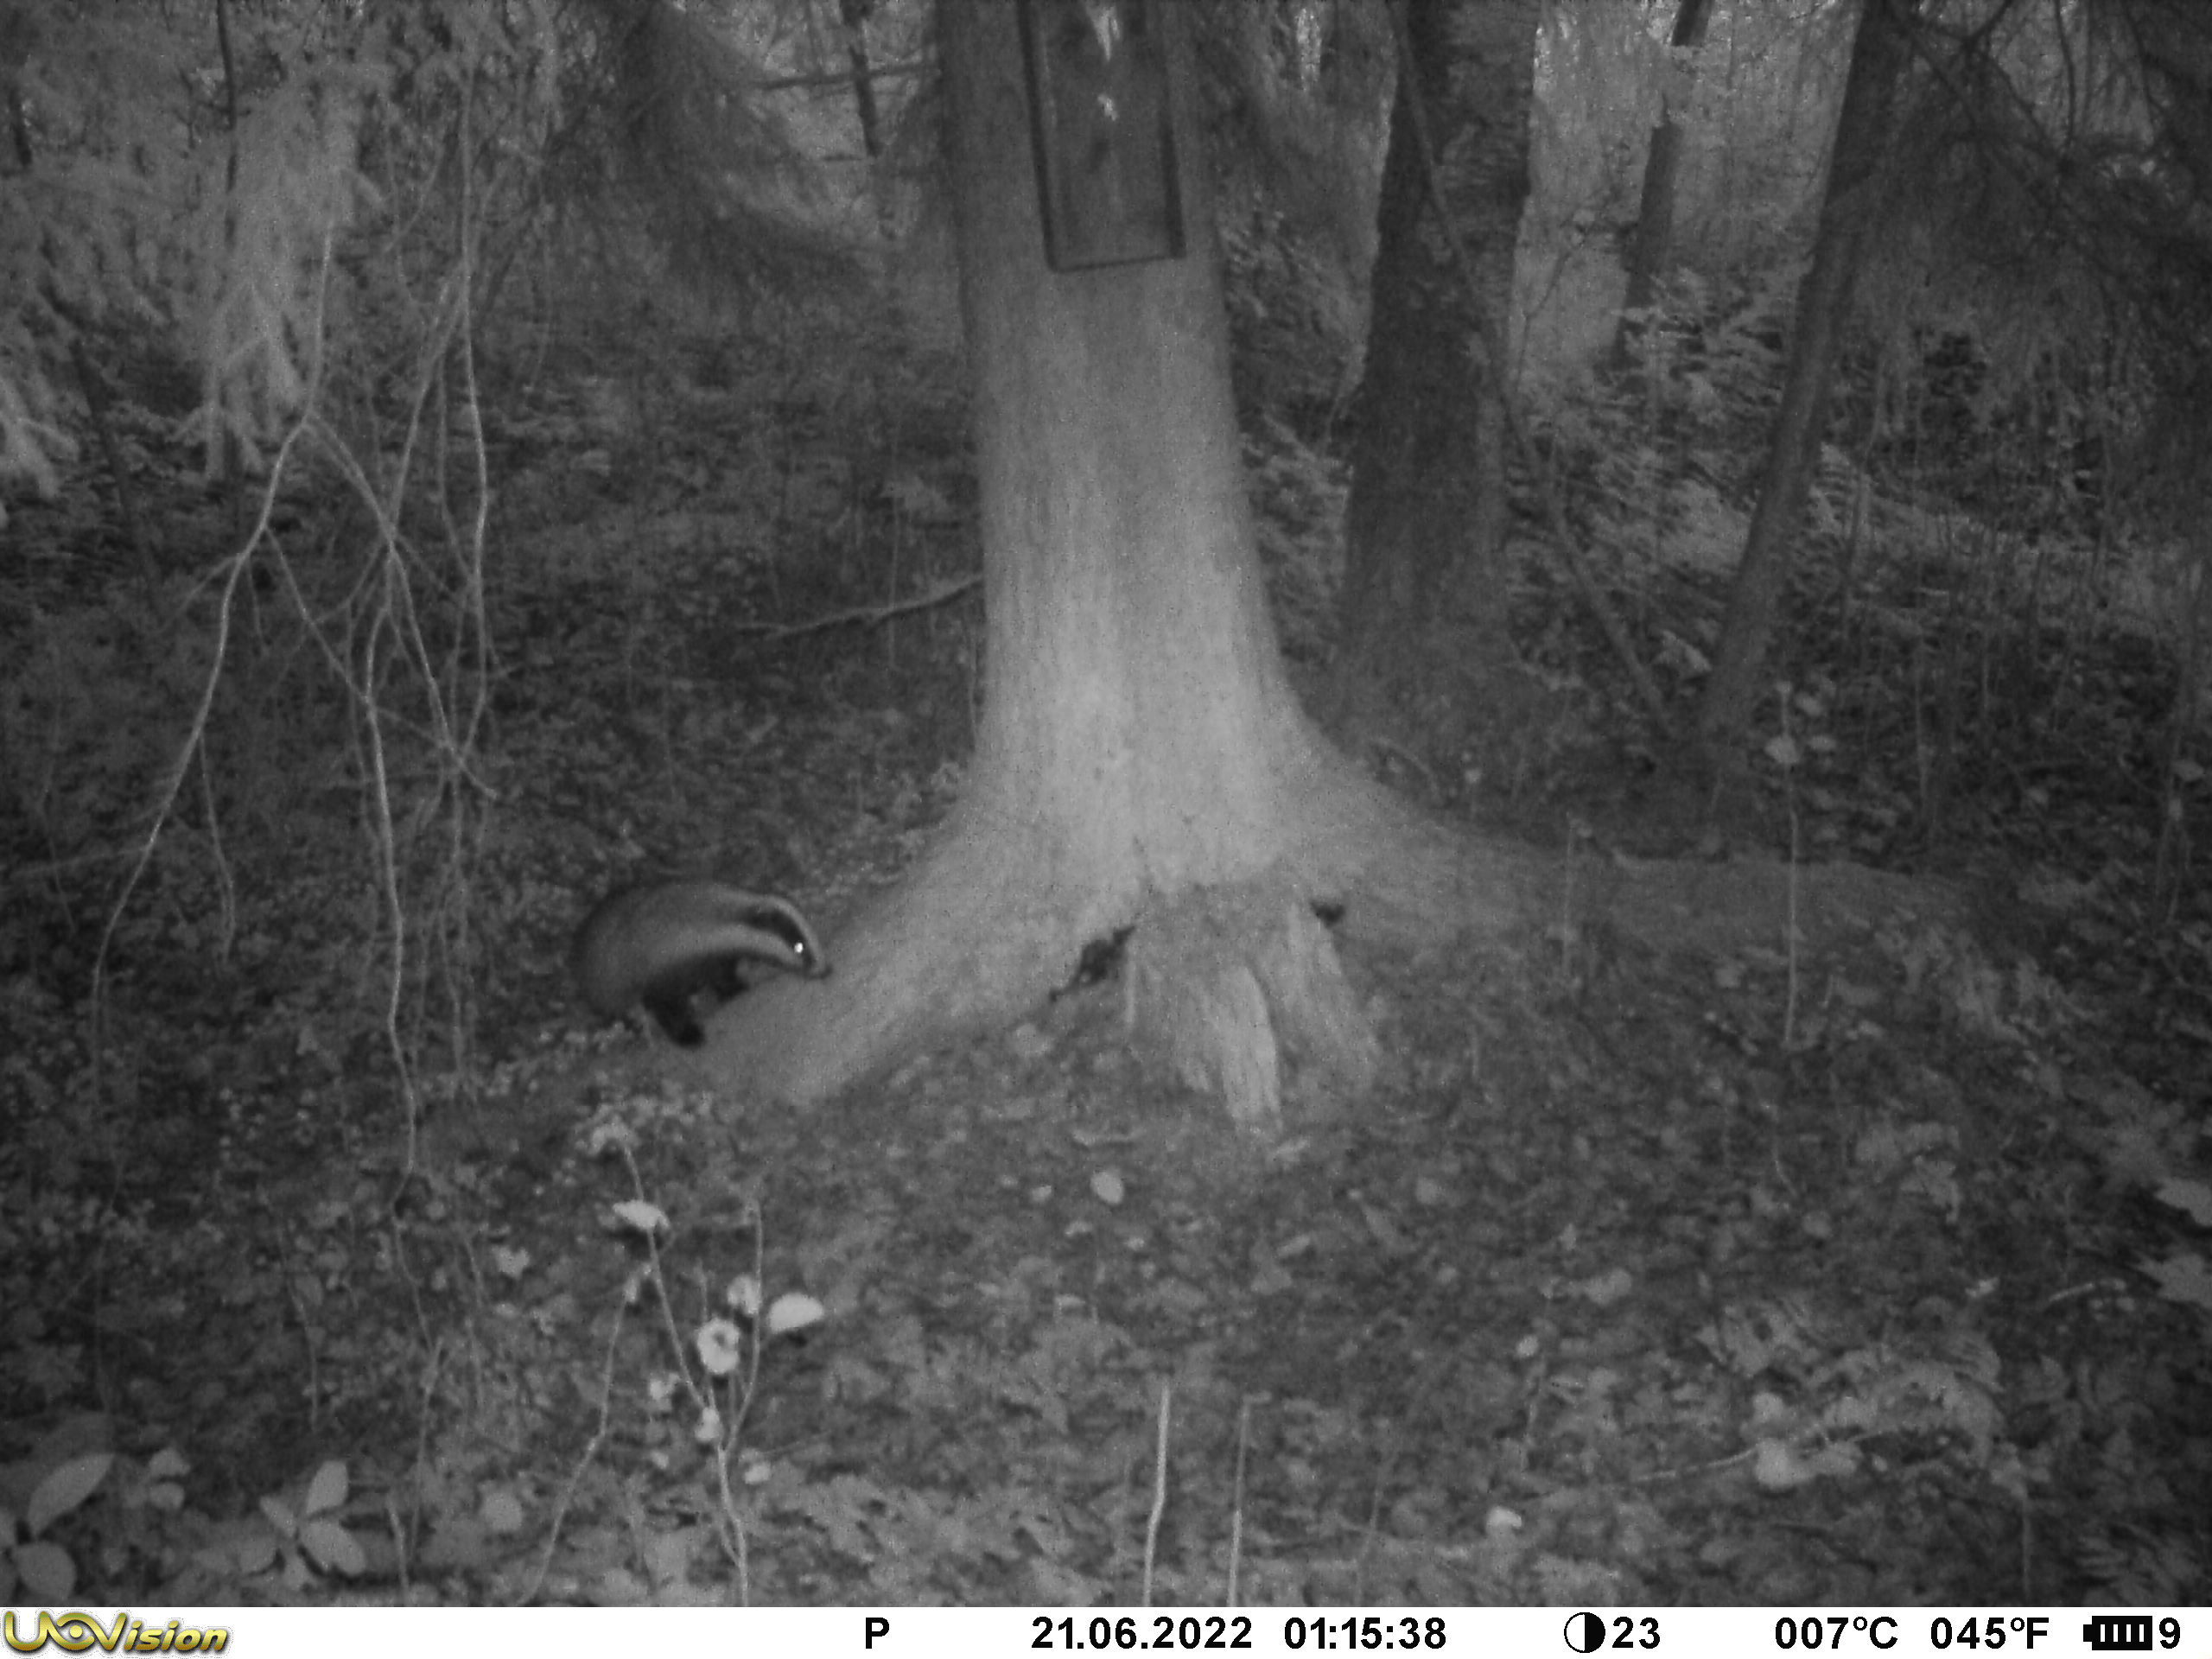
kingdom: Animalia
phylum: Chordata
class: Mammalia
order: Carnivora
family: Mustelidae
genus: Meles
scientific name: Meles meles
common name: Eurasian badger
